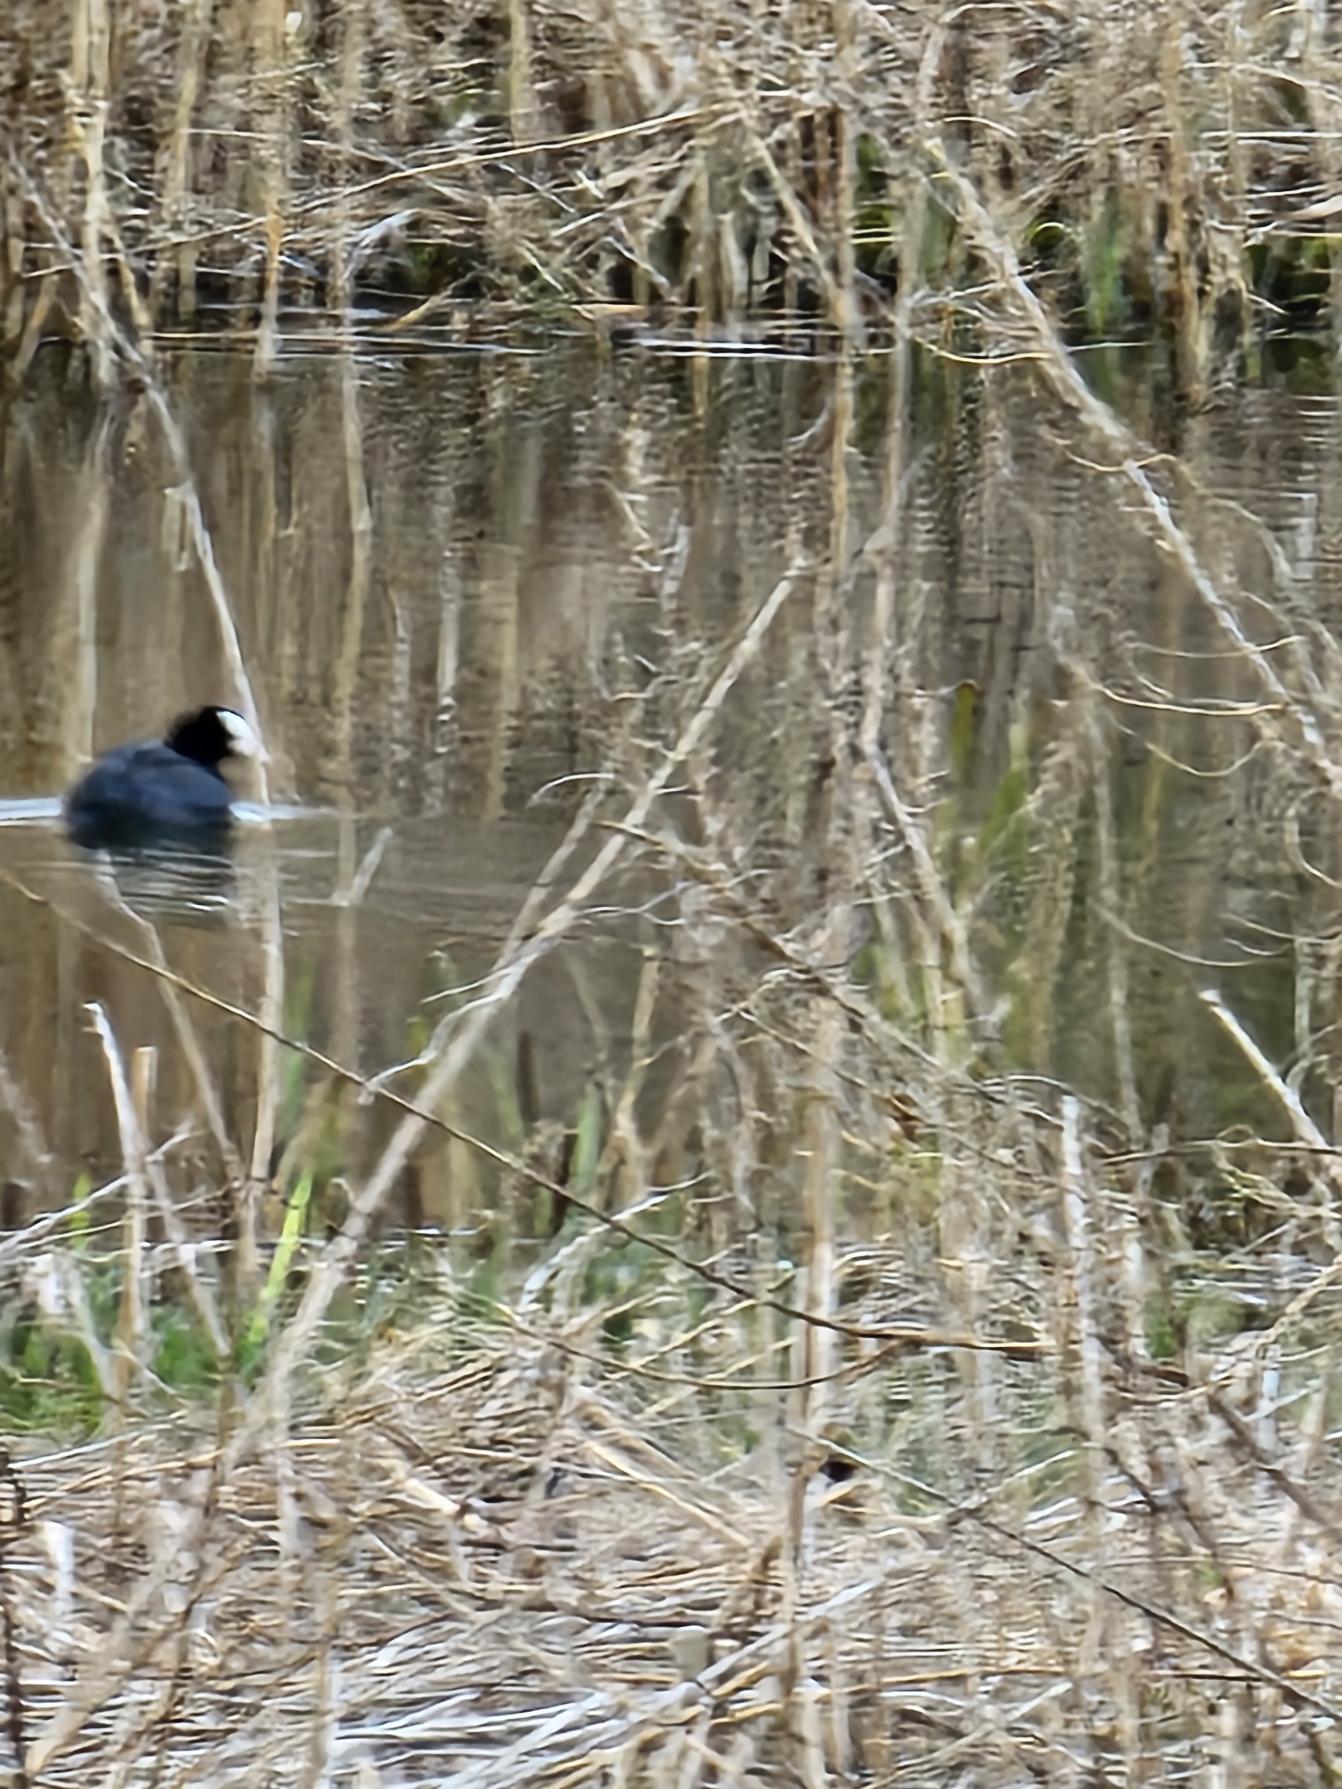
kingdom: Animalia
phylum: Chordata
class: Aves
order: Gruiformes
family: Rallidae
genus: Fulica
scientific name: Fulica atra
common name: Blishøne
